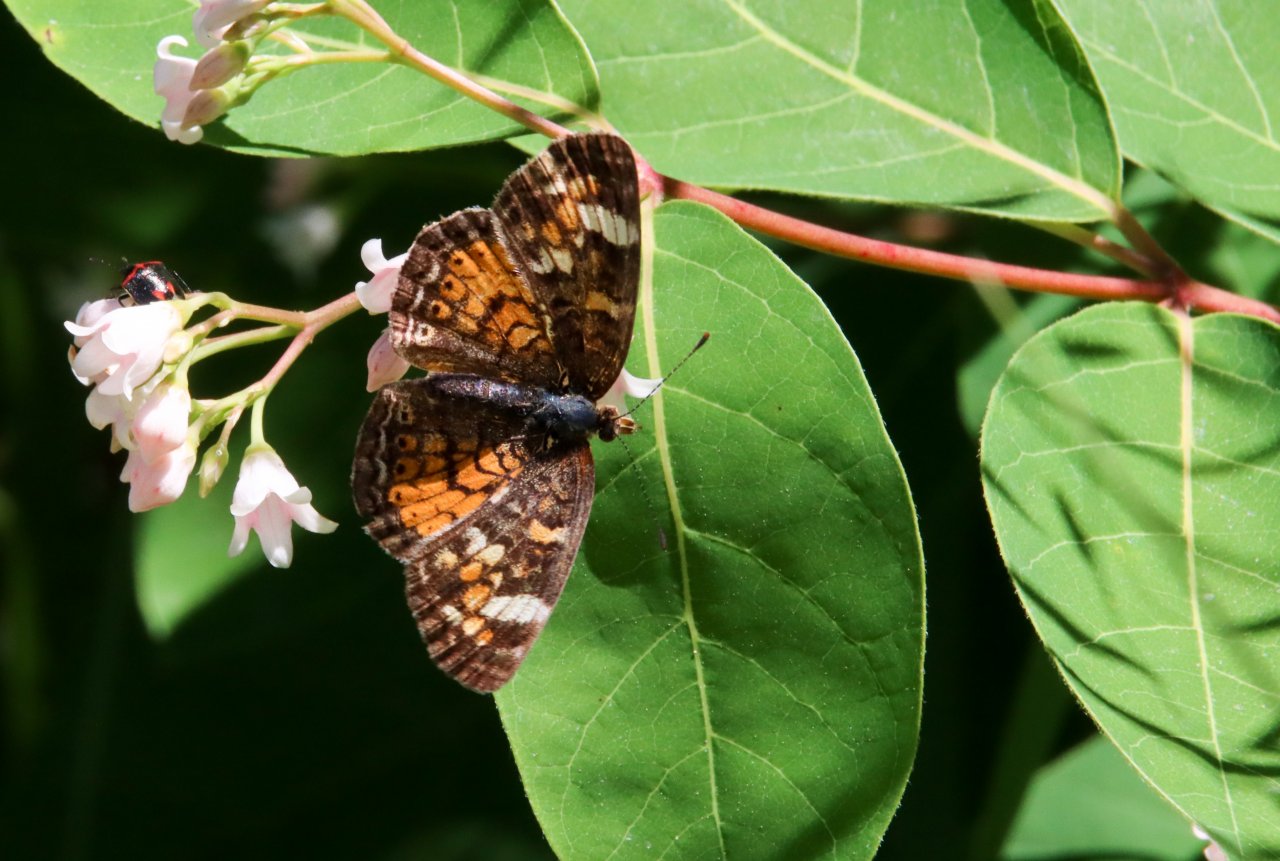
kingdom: Animalia
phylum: Arthropoda
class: Insecta
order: Lepidoptera
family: Nymphalidae
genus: Phyciodes
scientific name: Phyciodes
